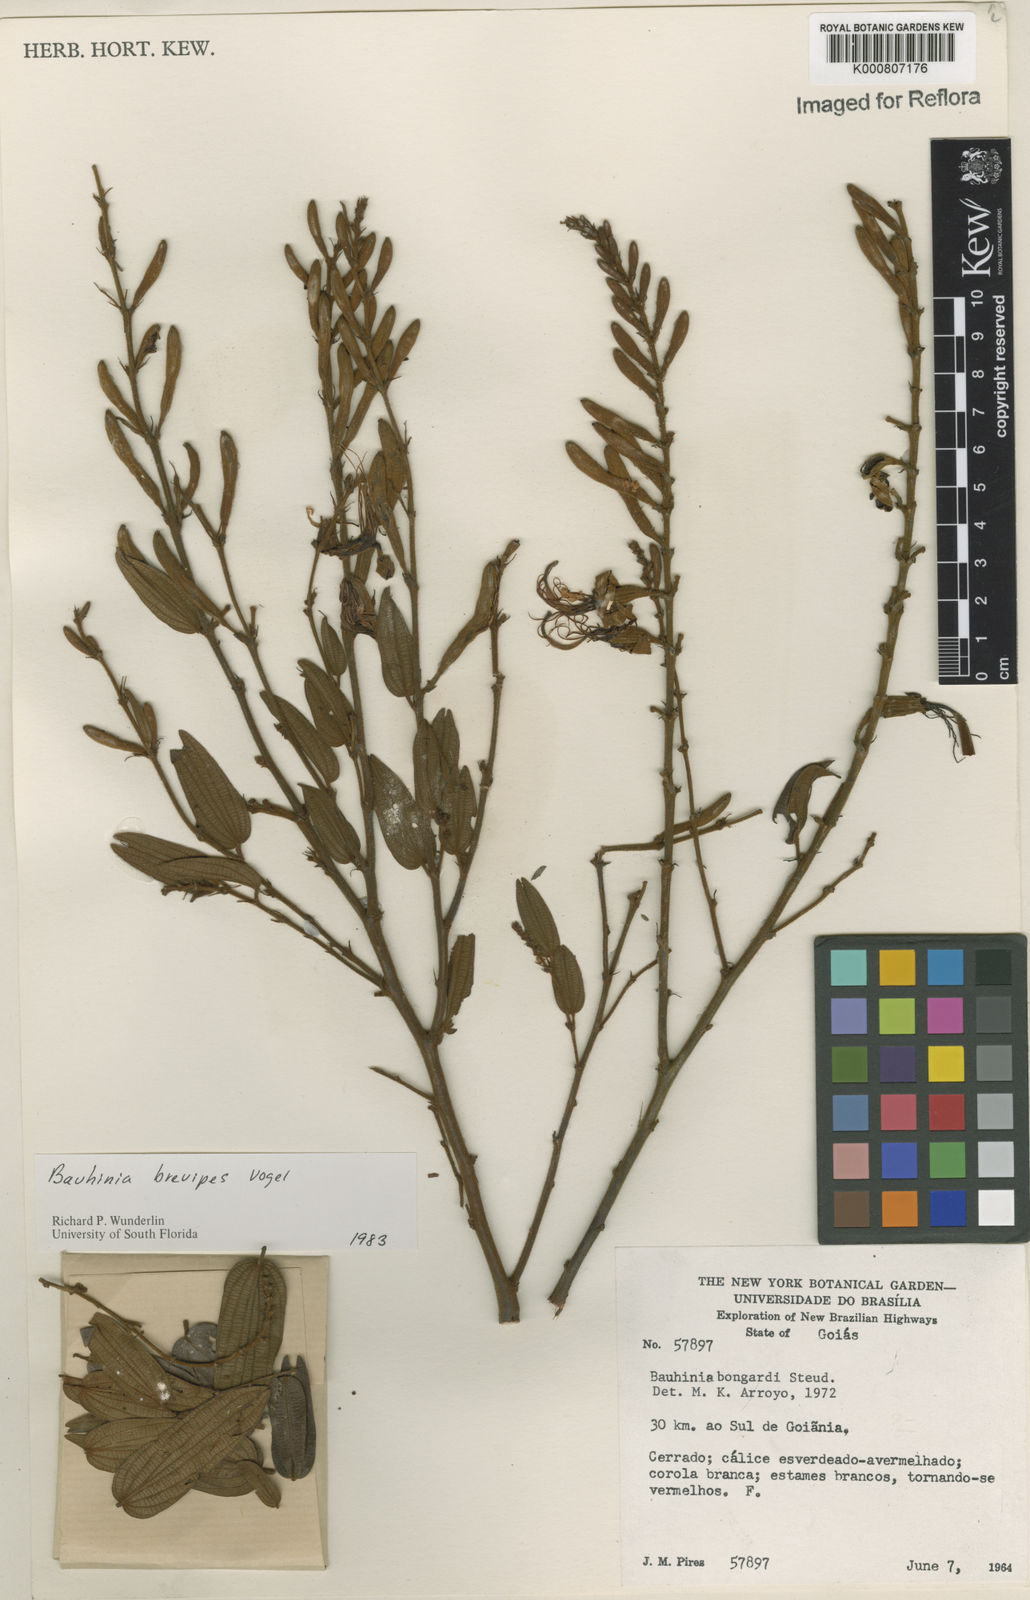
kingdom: Plantae
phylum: Tracheophyta
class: Magnoliopsida
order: Fabales
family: Fabaceae
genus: Bauhinia
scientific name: Bauhinia brevipes
